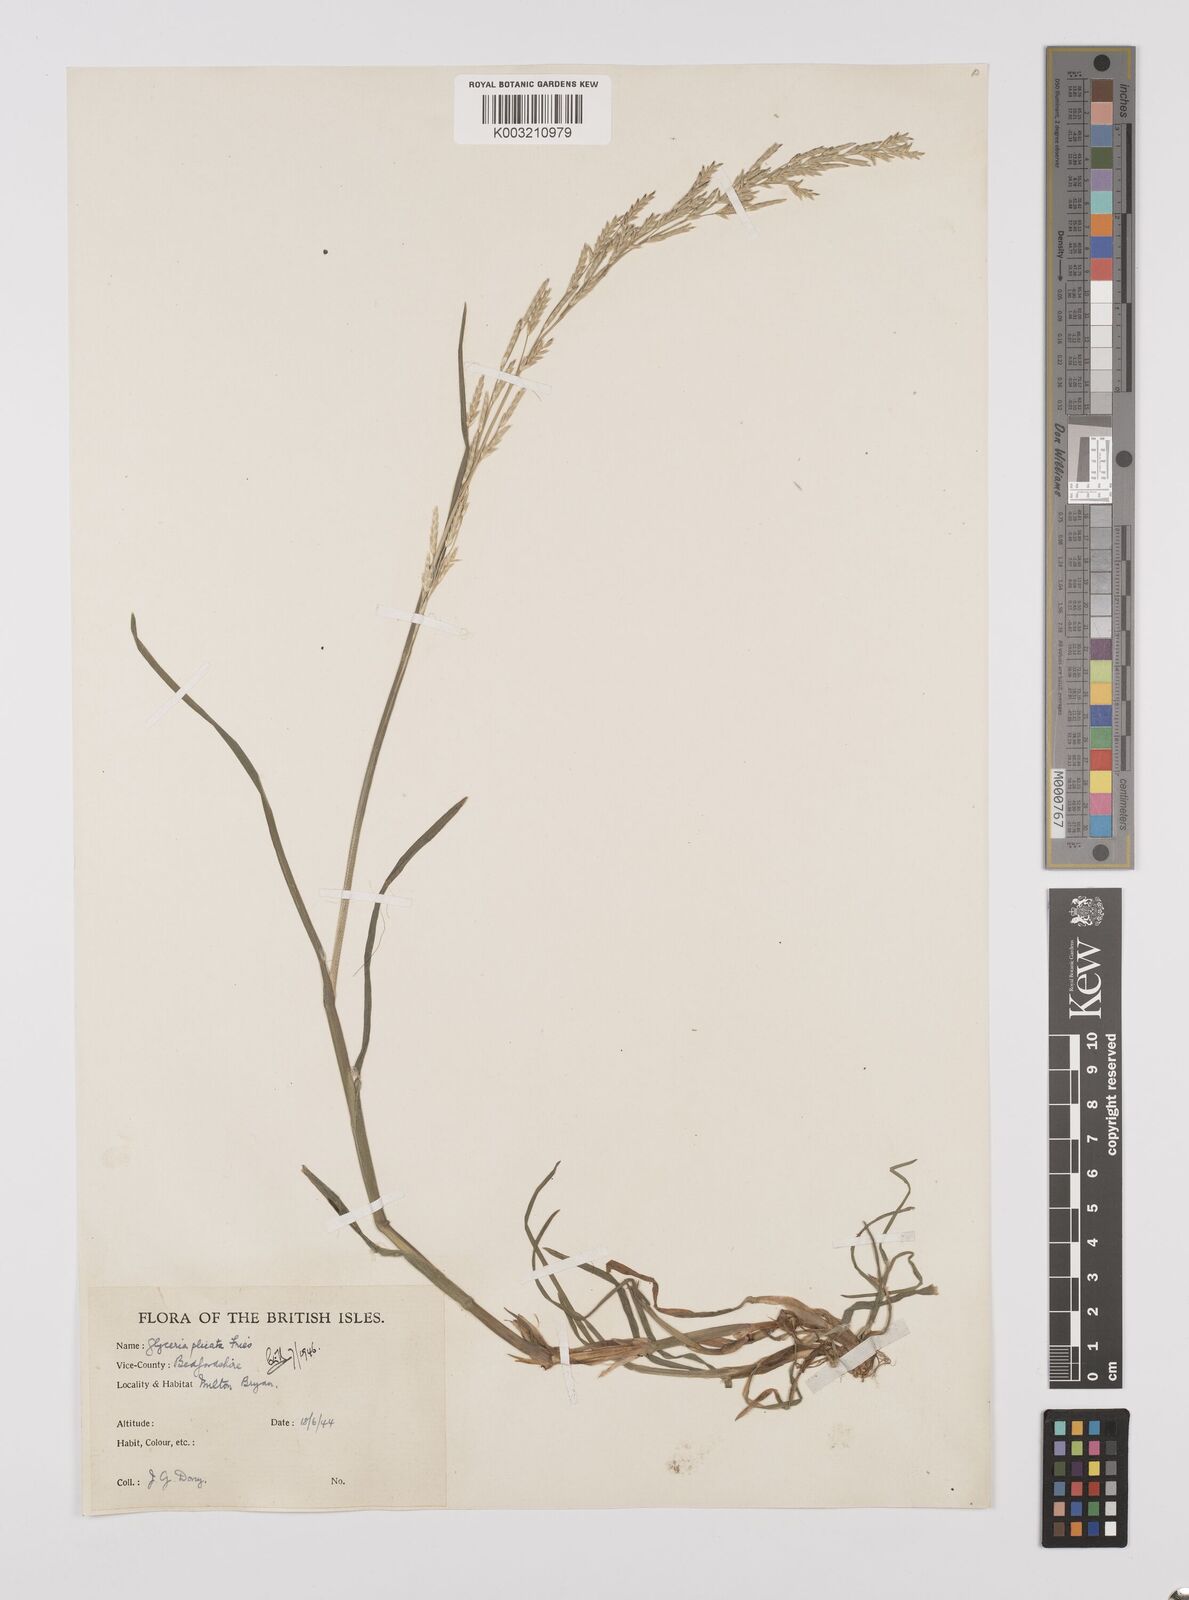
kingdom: Plantae
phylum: Tracheophyta
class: Liliopsida
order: Poales
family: Poaceae
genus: Glyceria
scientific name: Glyceria notata
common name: Plicate sweet-grass
